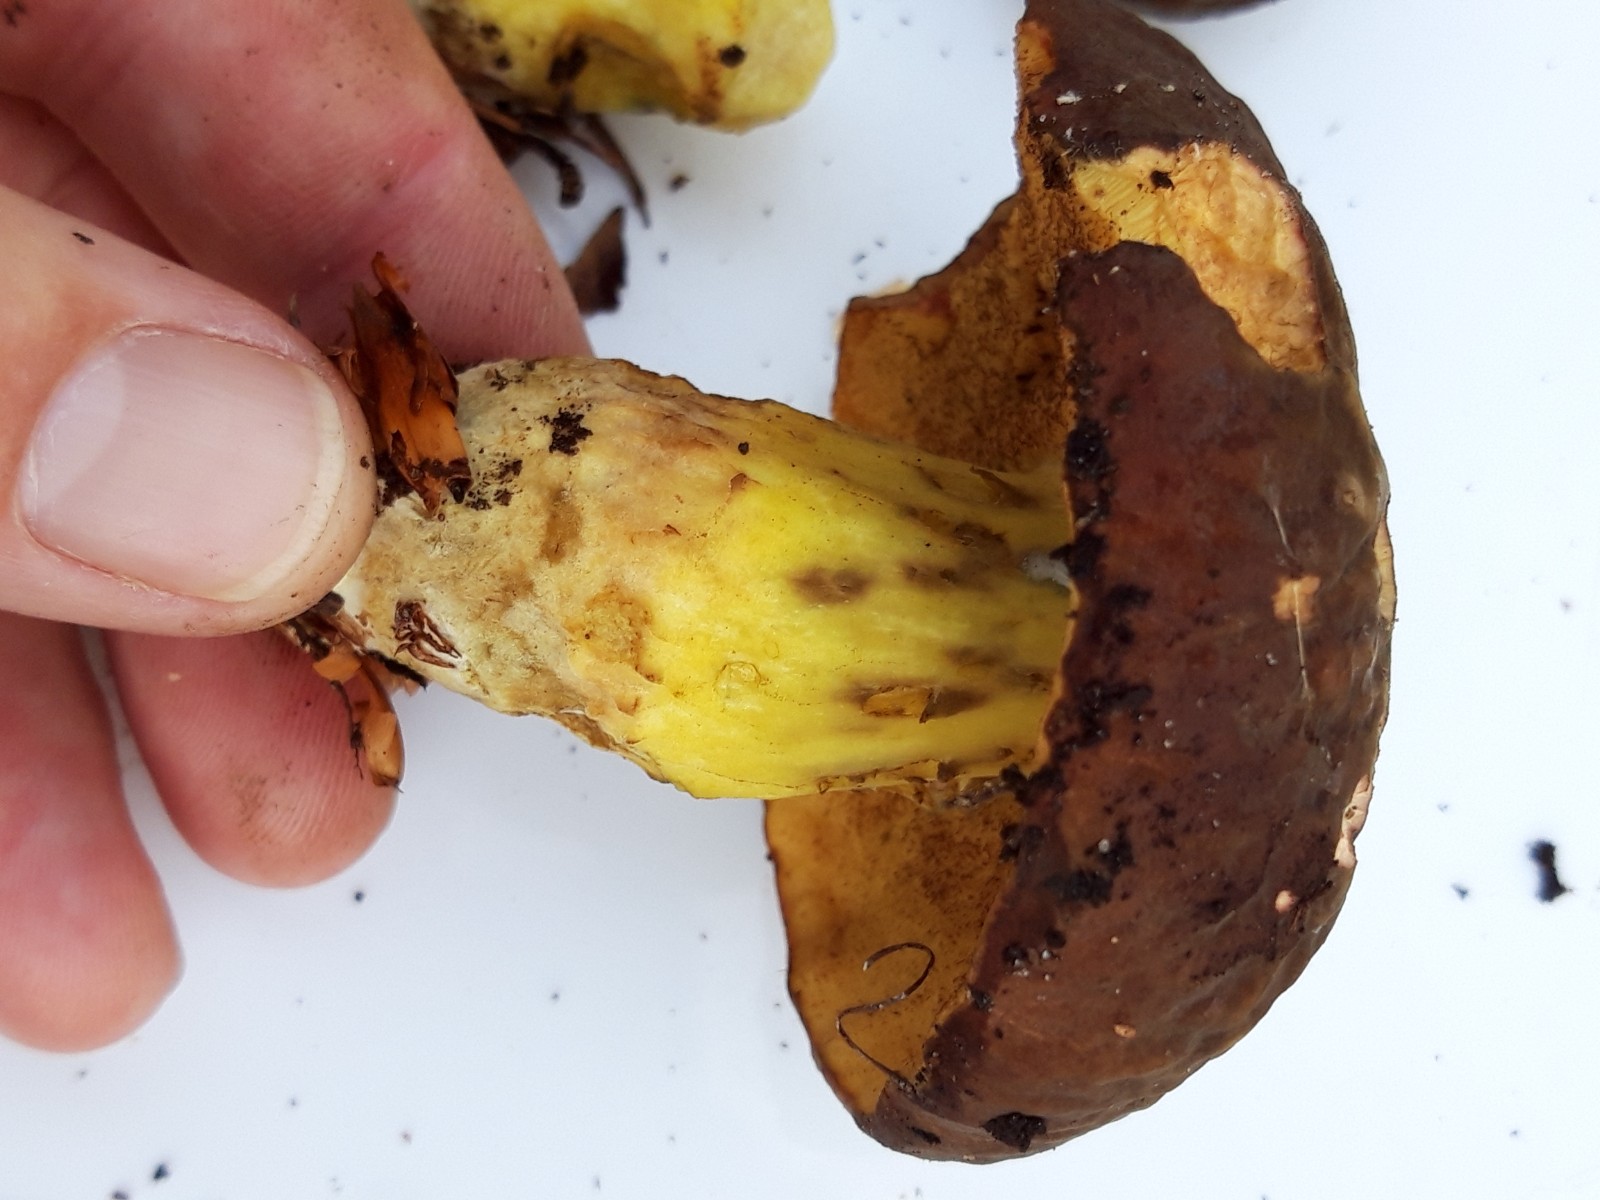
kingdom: Fungi
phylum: Basidiomycota
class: Agaricomycetes
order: Boletales
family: Boletaceae
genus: Xerocomellus
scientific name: Xerocomellus pruinatus
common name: dugget rørhat
